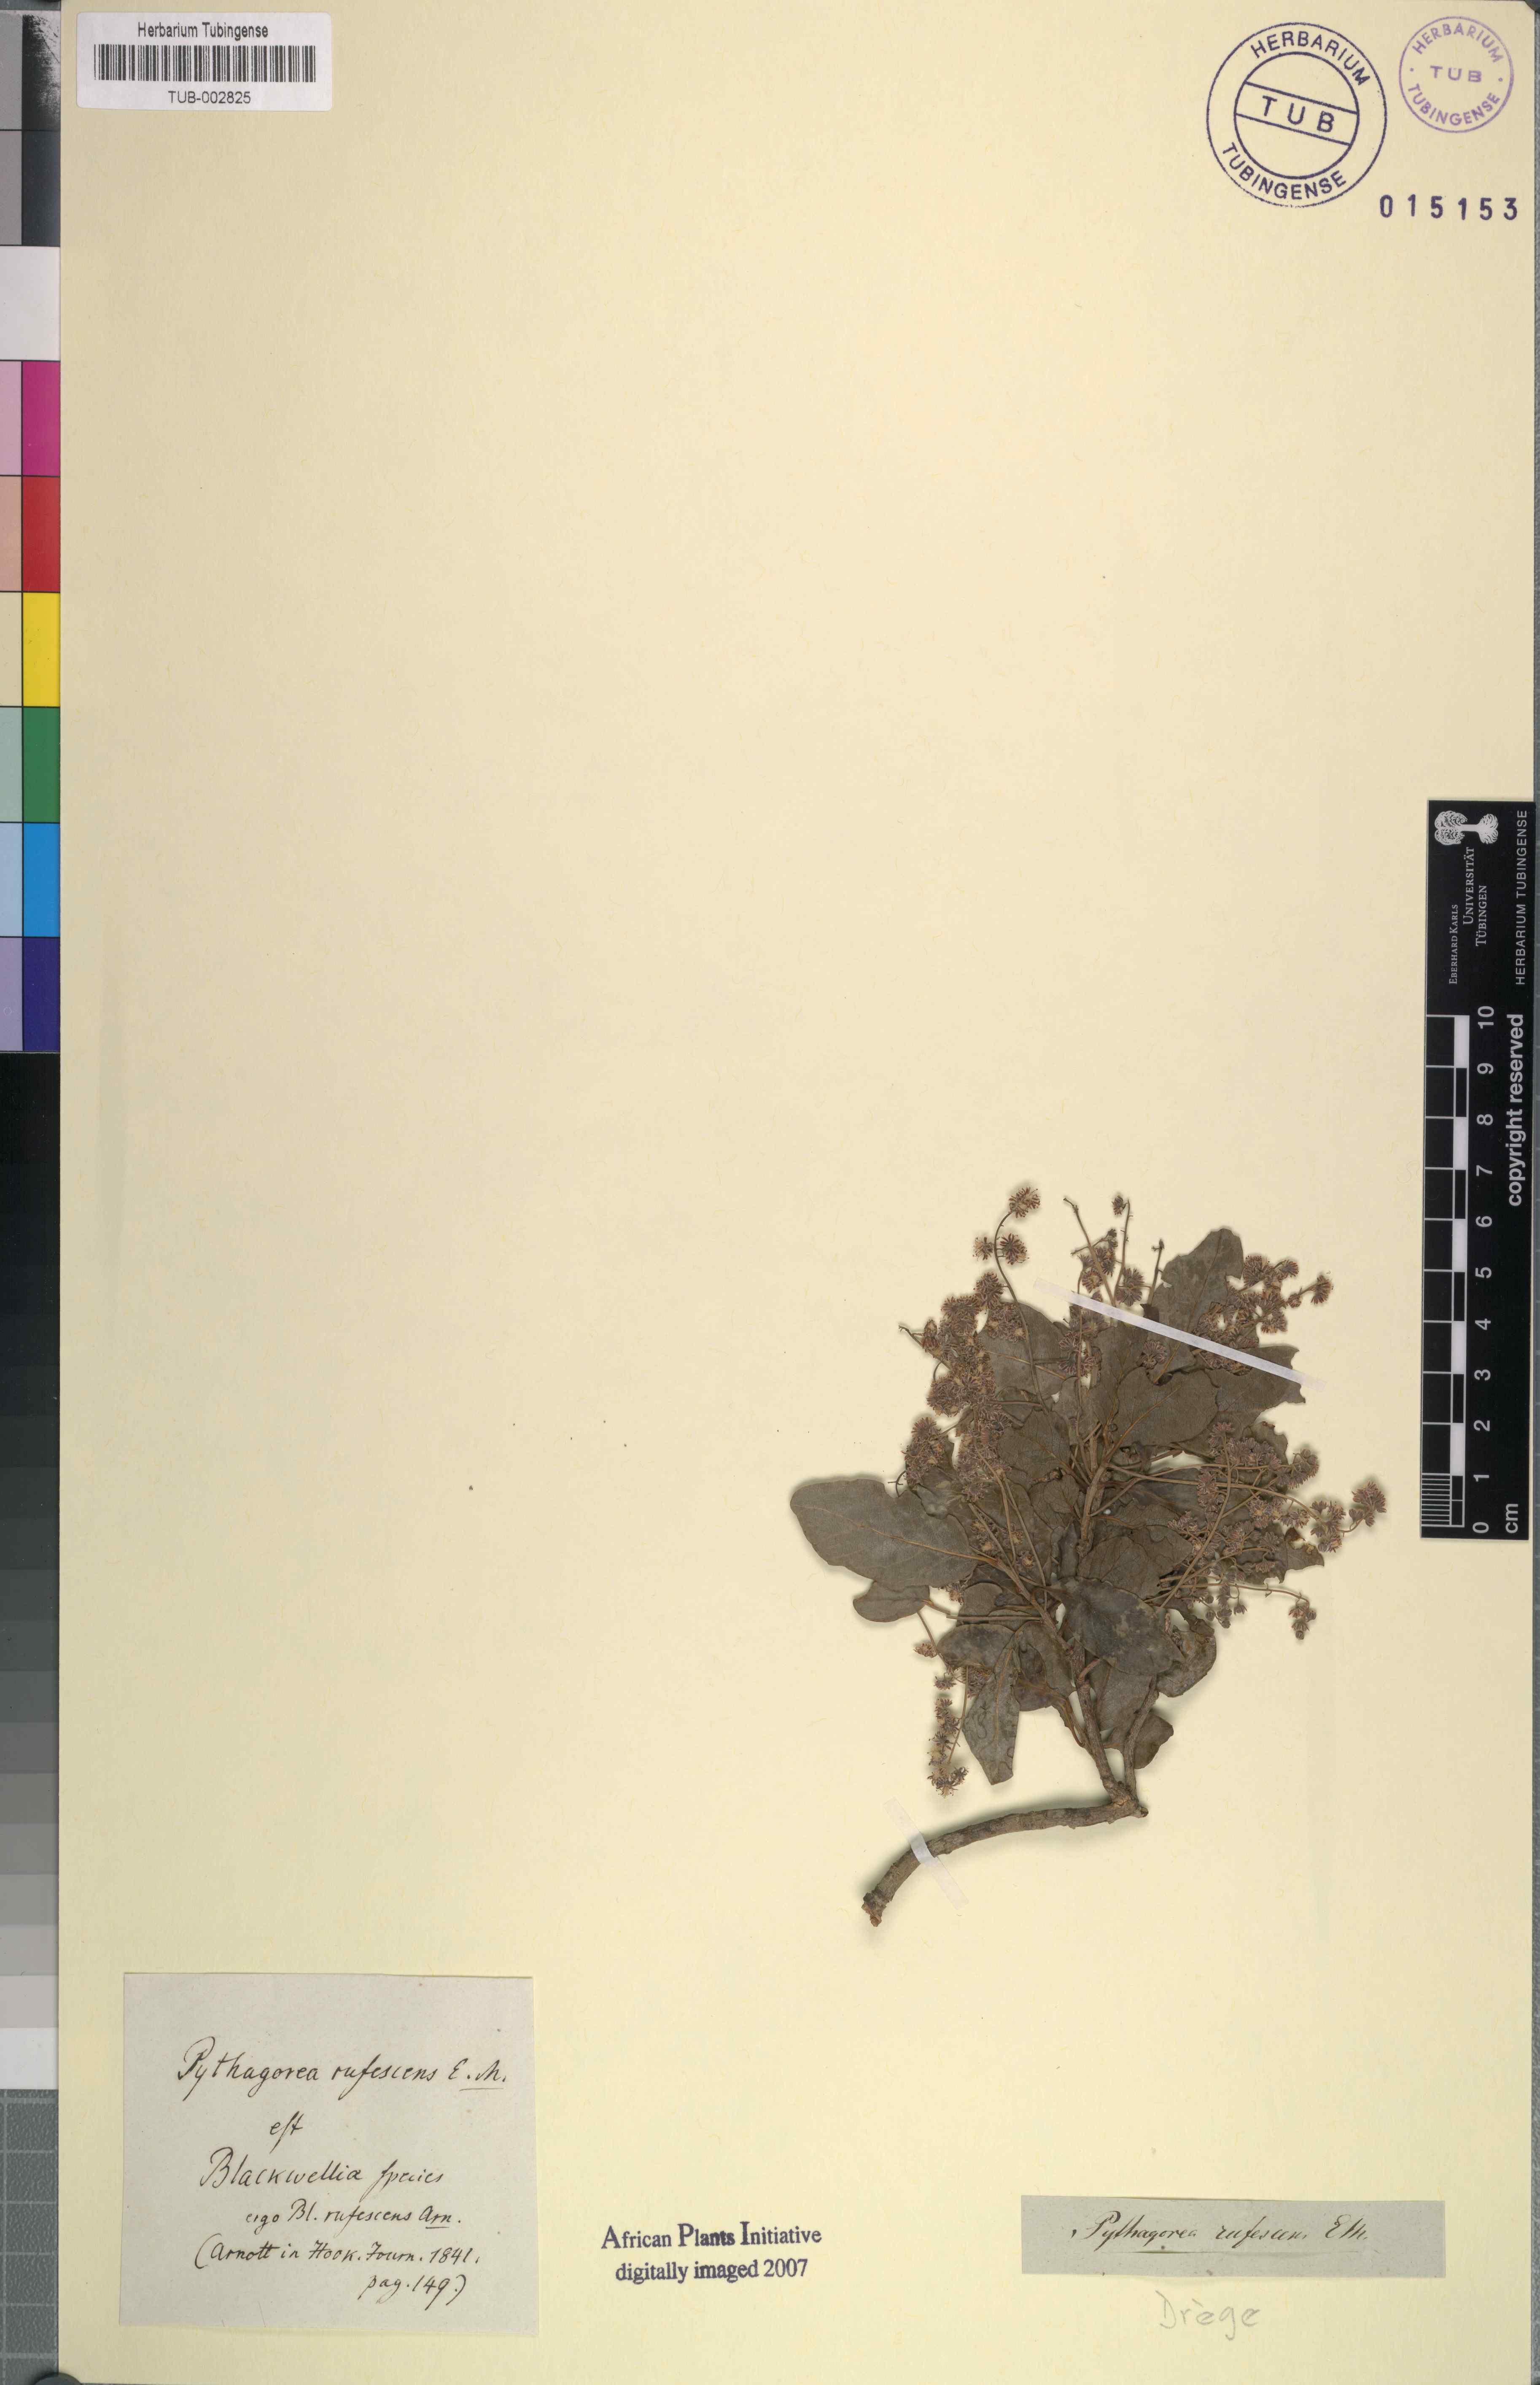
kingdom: Plantae
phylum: Tracheophyta
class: Magnoliopsida
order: Malpighiales
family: Salicaceae
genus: Homalium
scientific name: Homalium rufescens
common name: Small-leaved brown-ironwood
